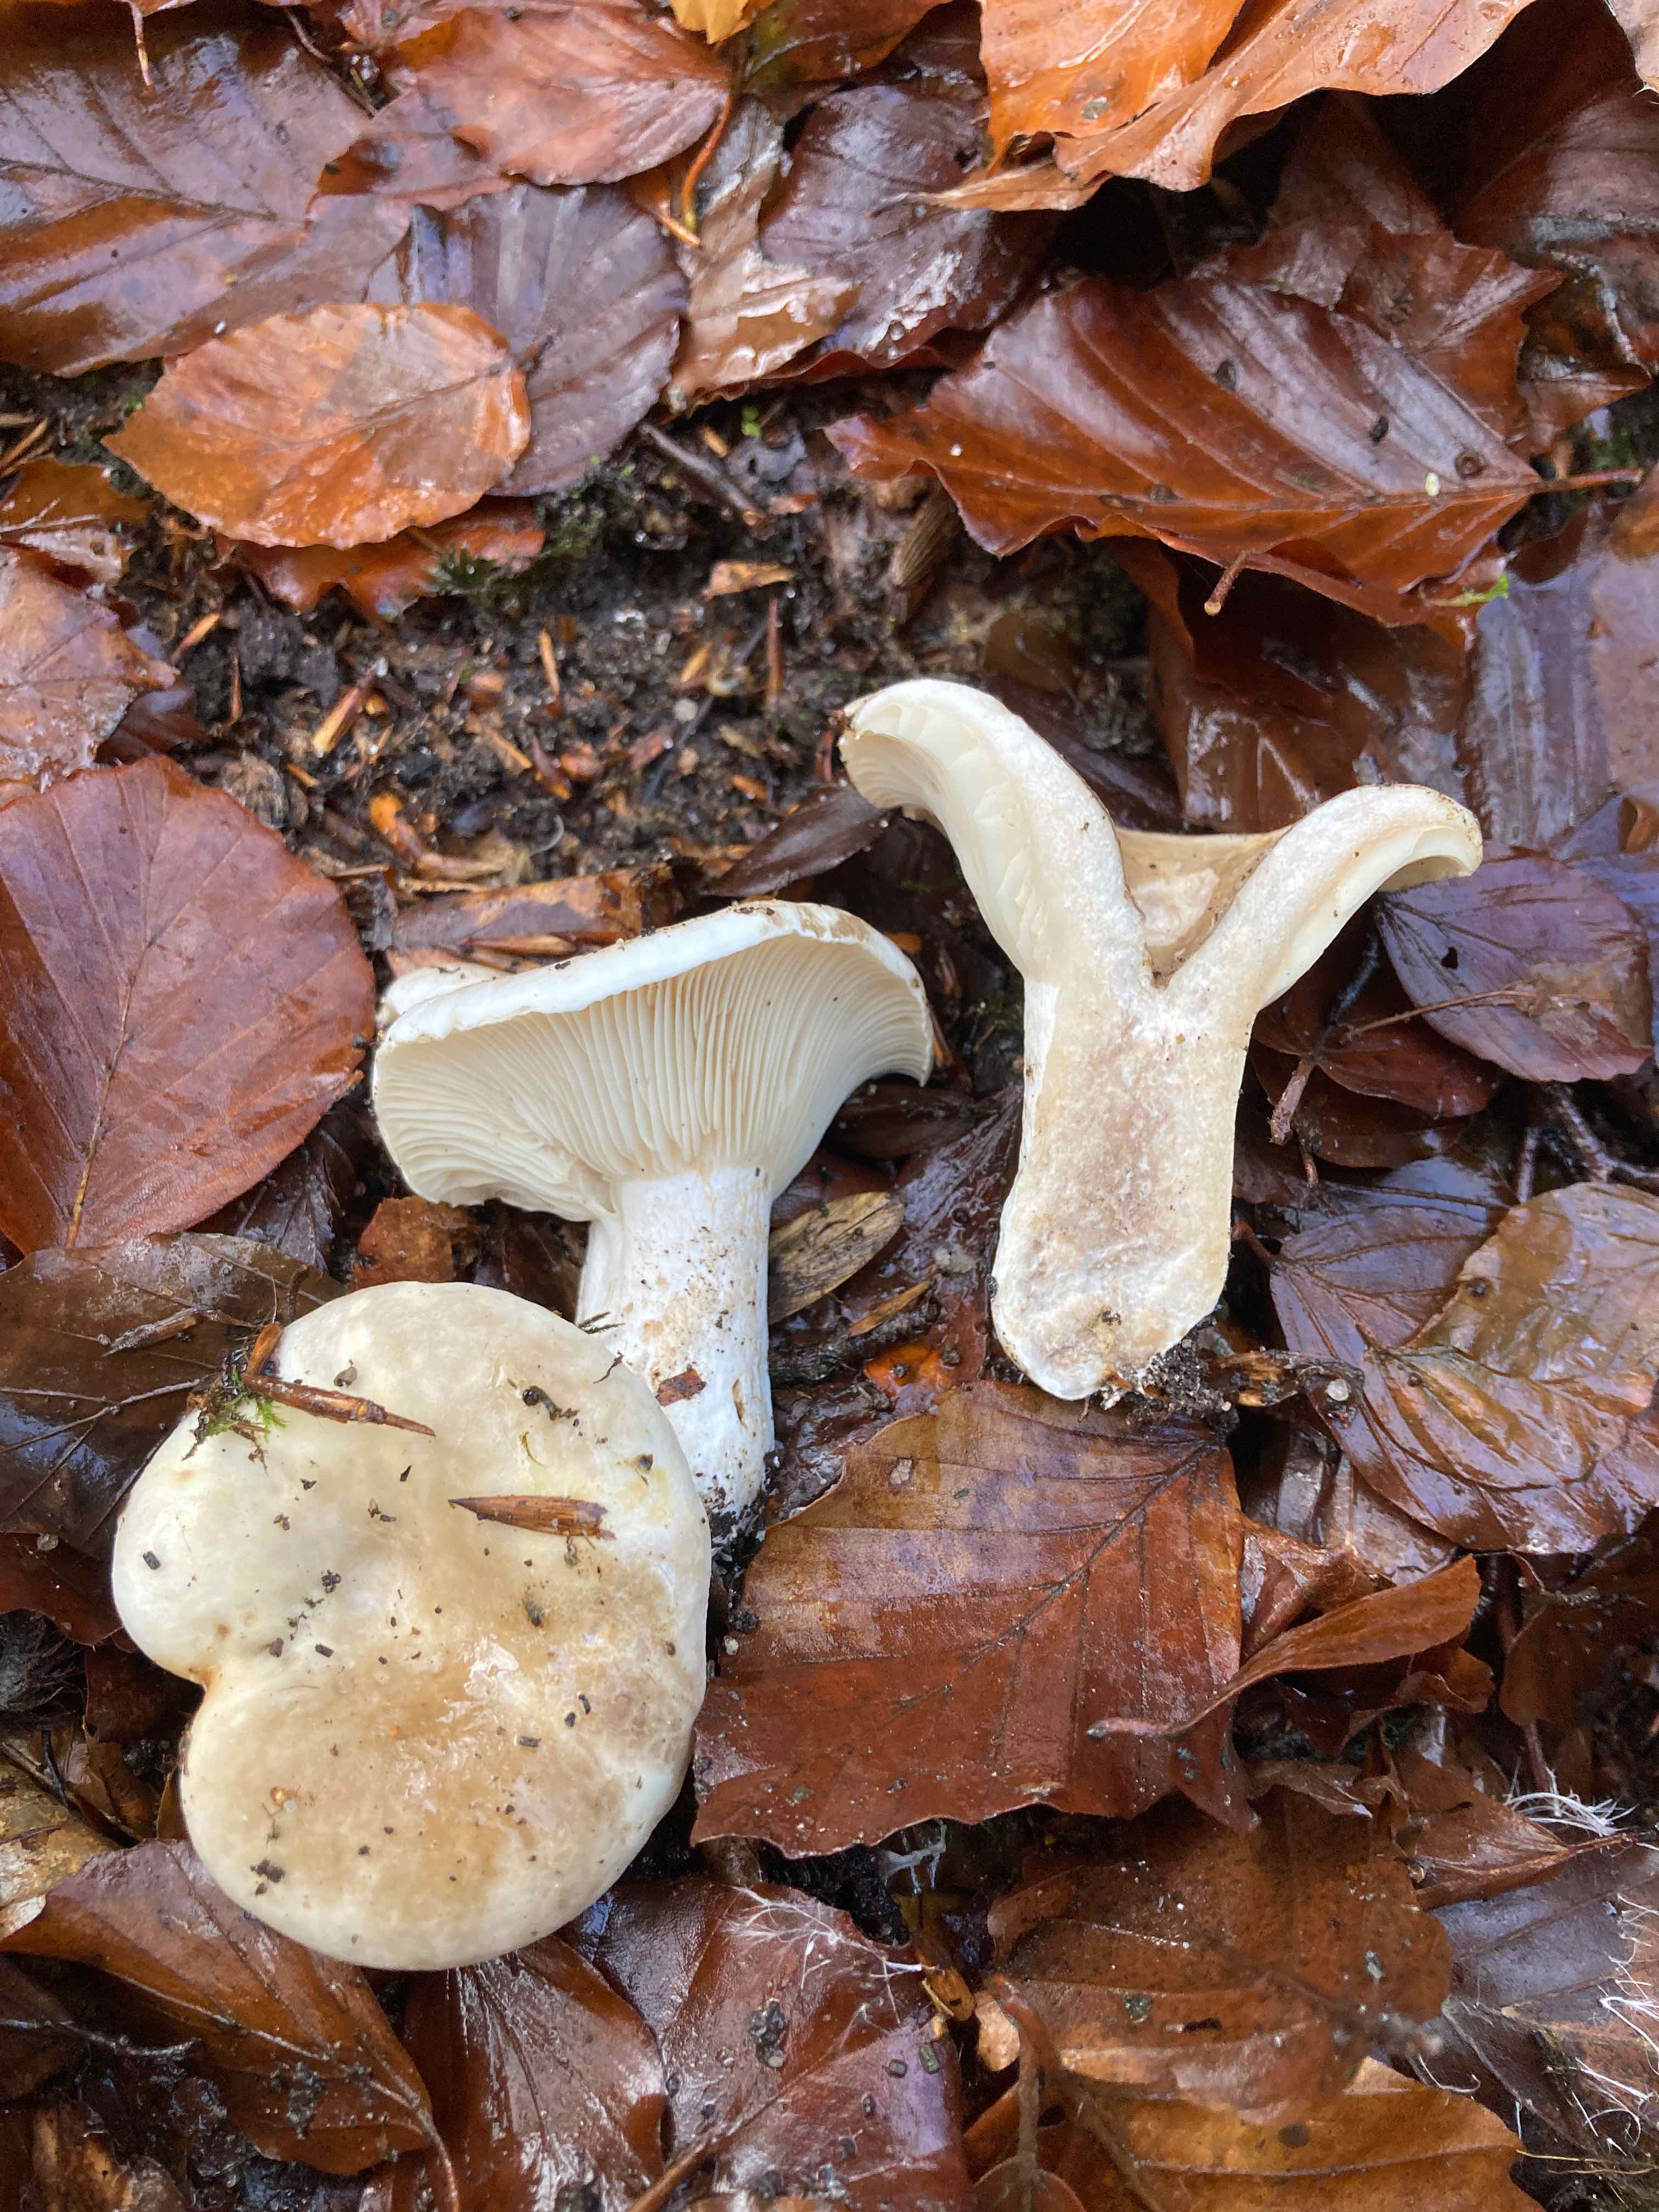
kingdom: Fungi
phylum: Basidiomycota
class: Agaricomycetes
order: Russulales
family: Russulaceae
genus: Russula
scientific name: Russula densifolia
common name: tætbladet skørhat
